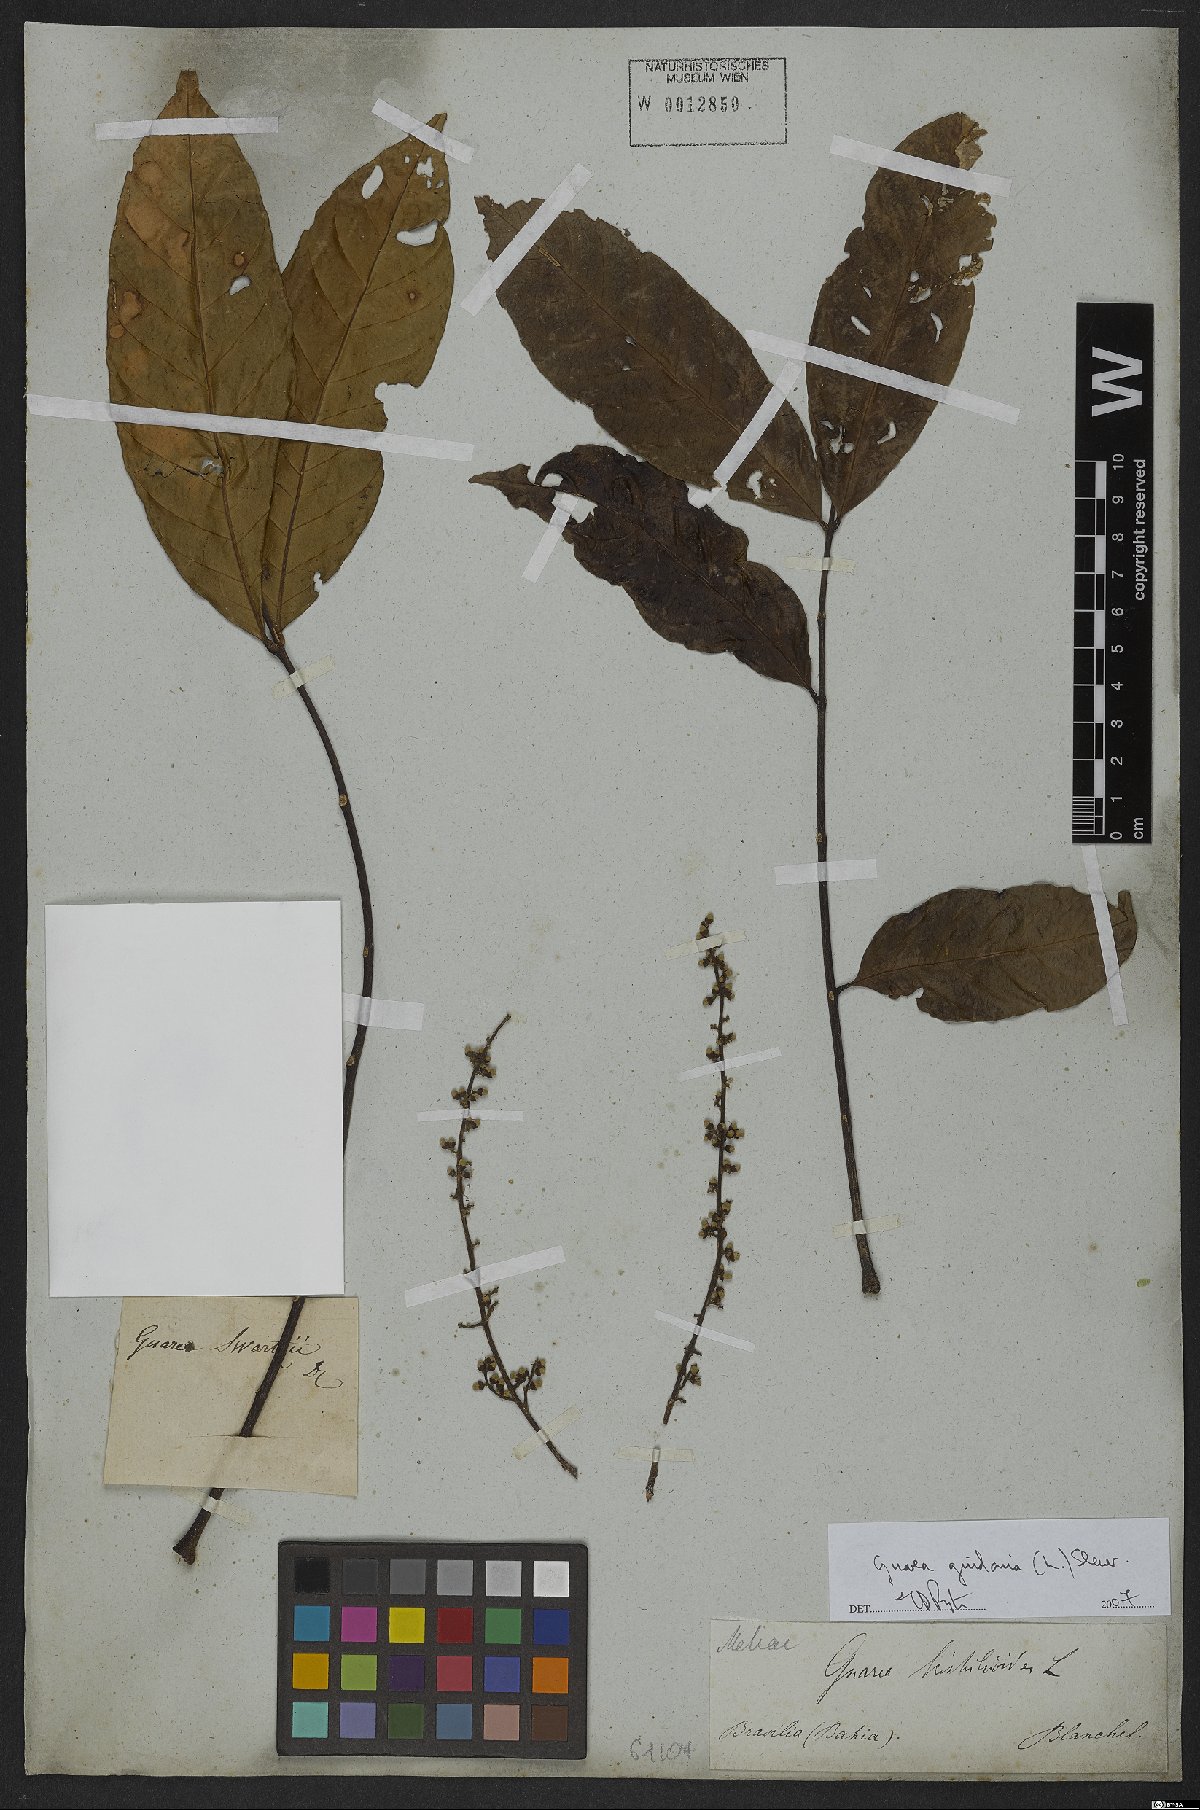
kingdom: Plantae
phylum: Tracheophyta
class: Magnoliopsida
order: Sapindales
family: Meliaceae
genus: Guarea
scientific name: Guarea guidonia
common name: American muskwood
